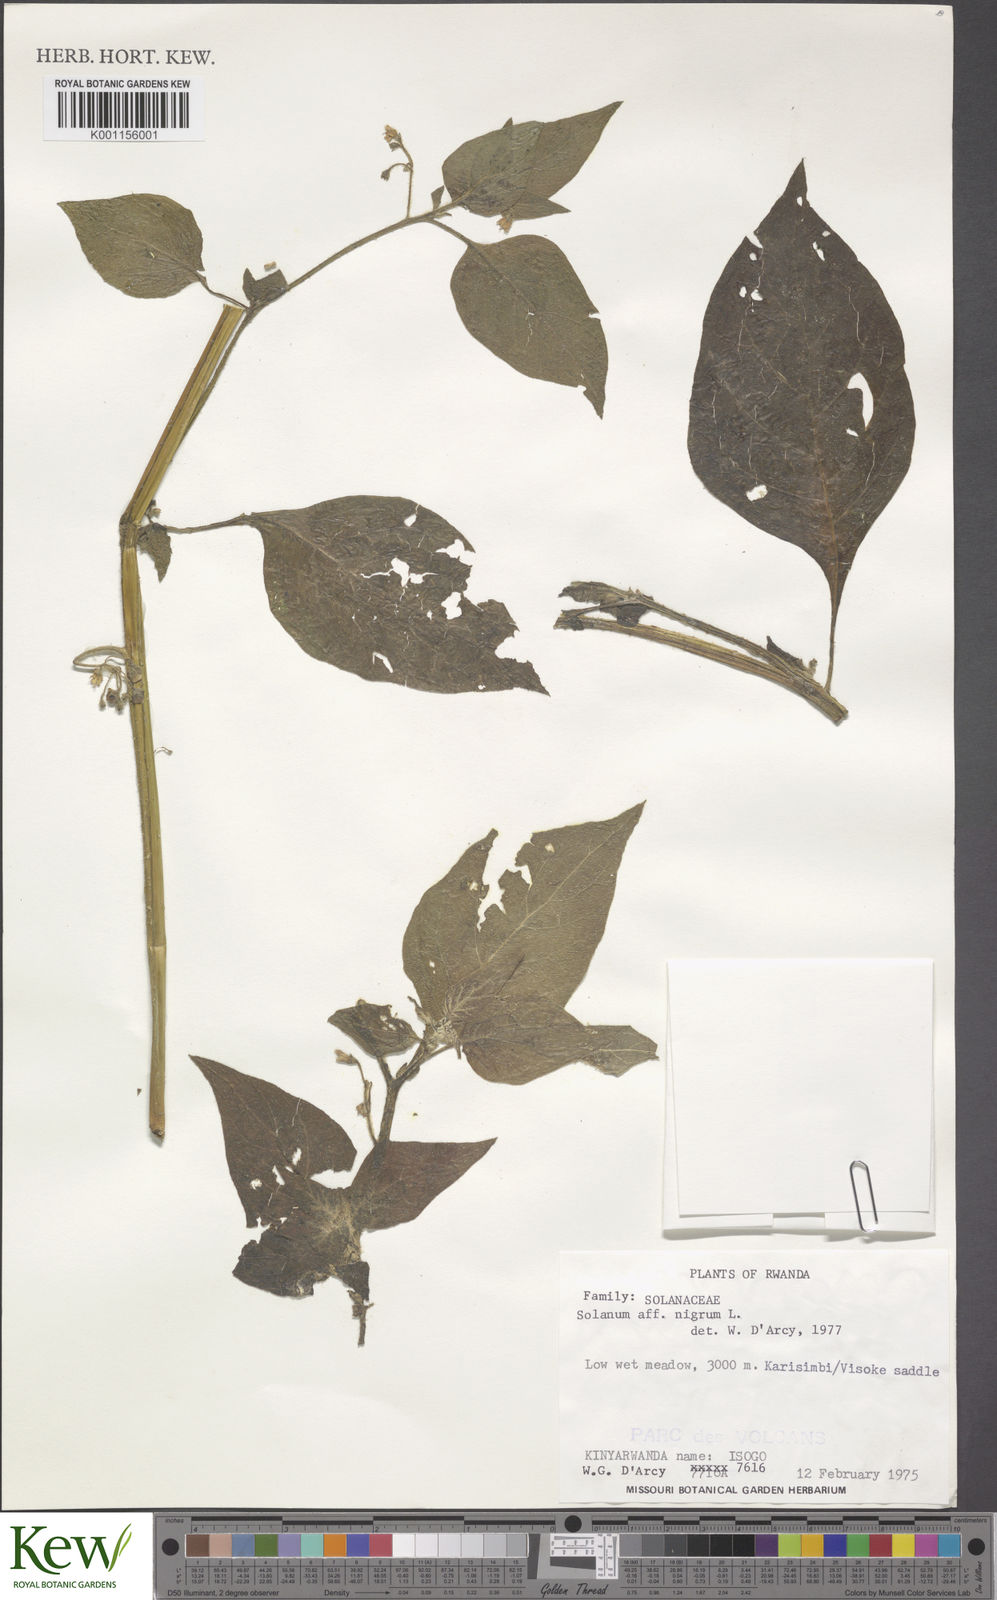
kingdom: Plantae
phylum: Tracheophyta
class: Magnoliopsida
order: Solanales
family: Solanaceae
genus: Solanum
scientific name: Solanum tarderemotum
